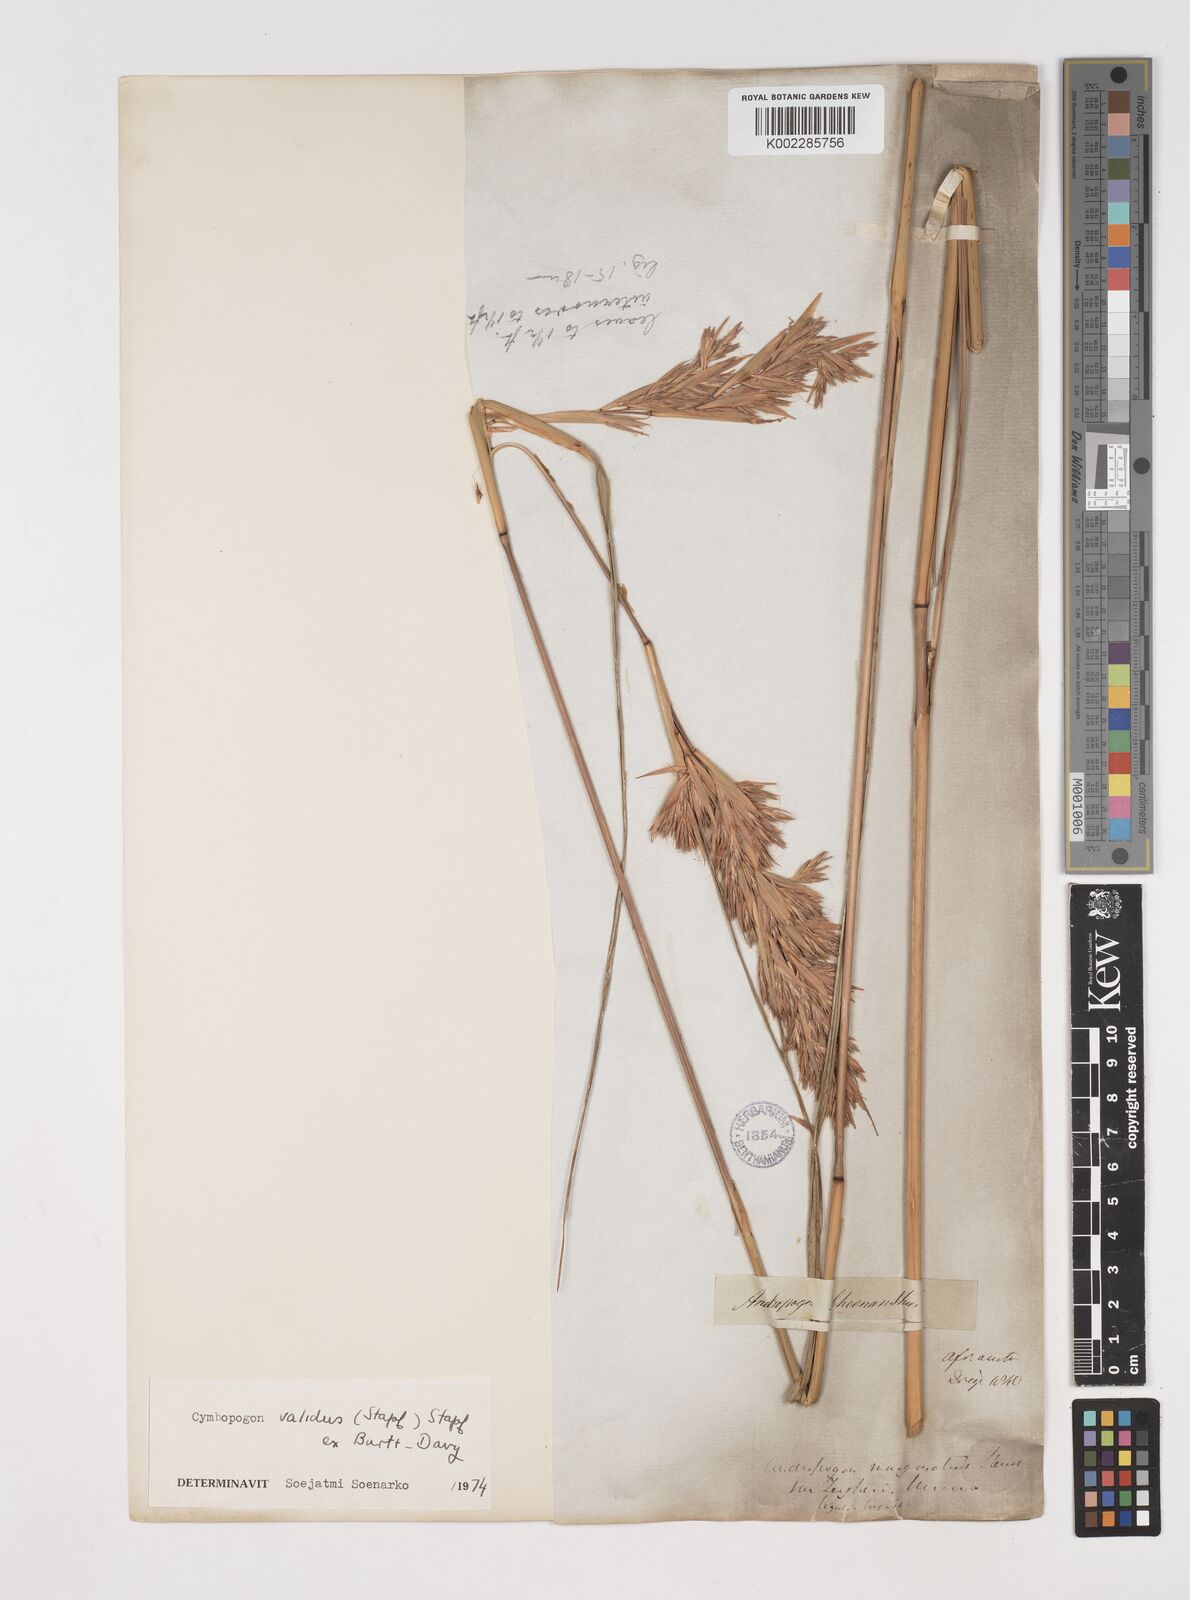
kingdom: Plantae
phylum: Tracheophyta
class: Liliopsida
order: Poales
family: Poaceae
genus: Cymbopogon
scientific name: Cymbopogon nardus
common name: Giant turpentine grass
